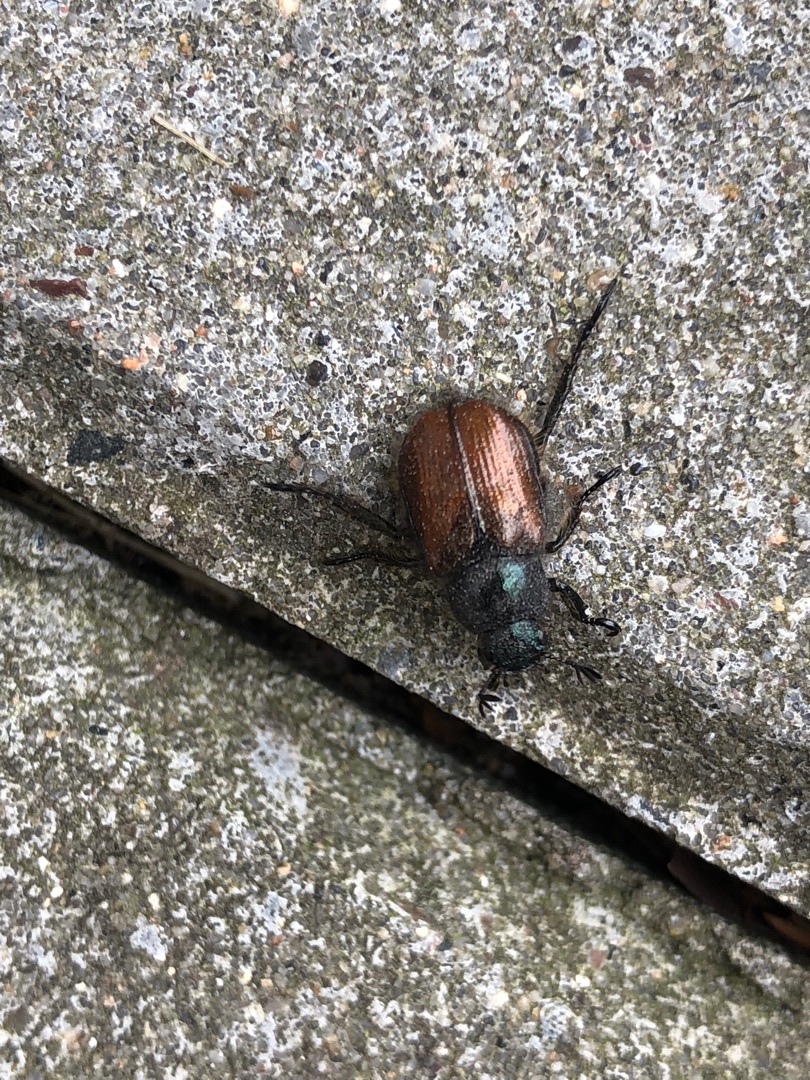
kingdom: Animalia
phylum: Arthropoda
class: Insecta
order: Coleoptera
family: Scarabaeidae
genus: Phyllopertha
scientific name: Phyllopertha horticola
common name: Gåsebille
